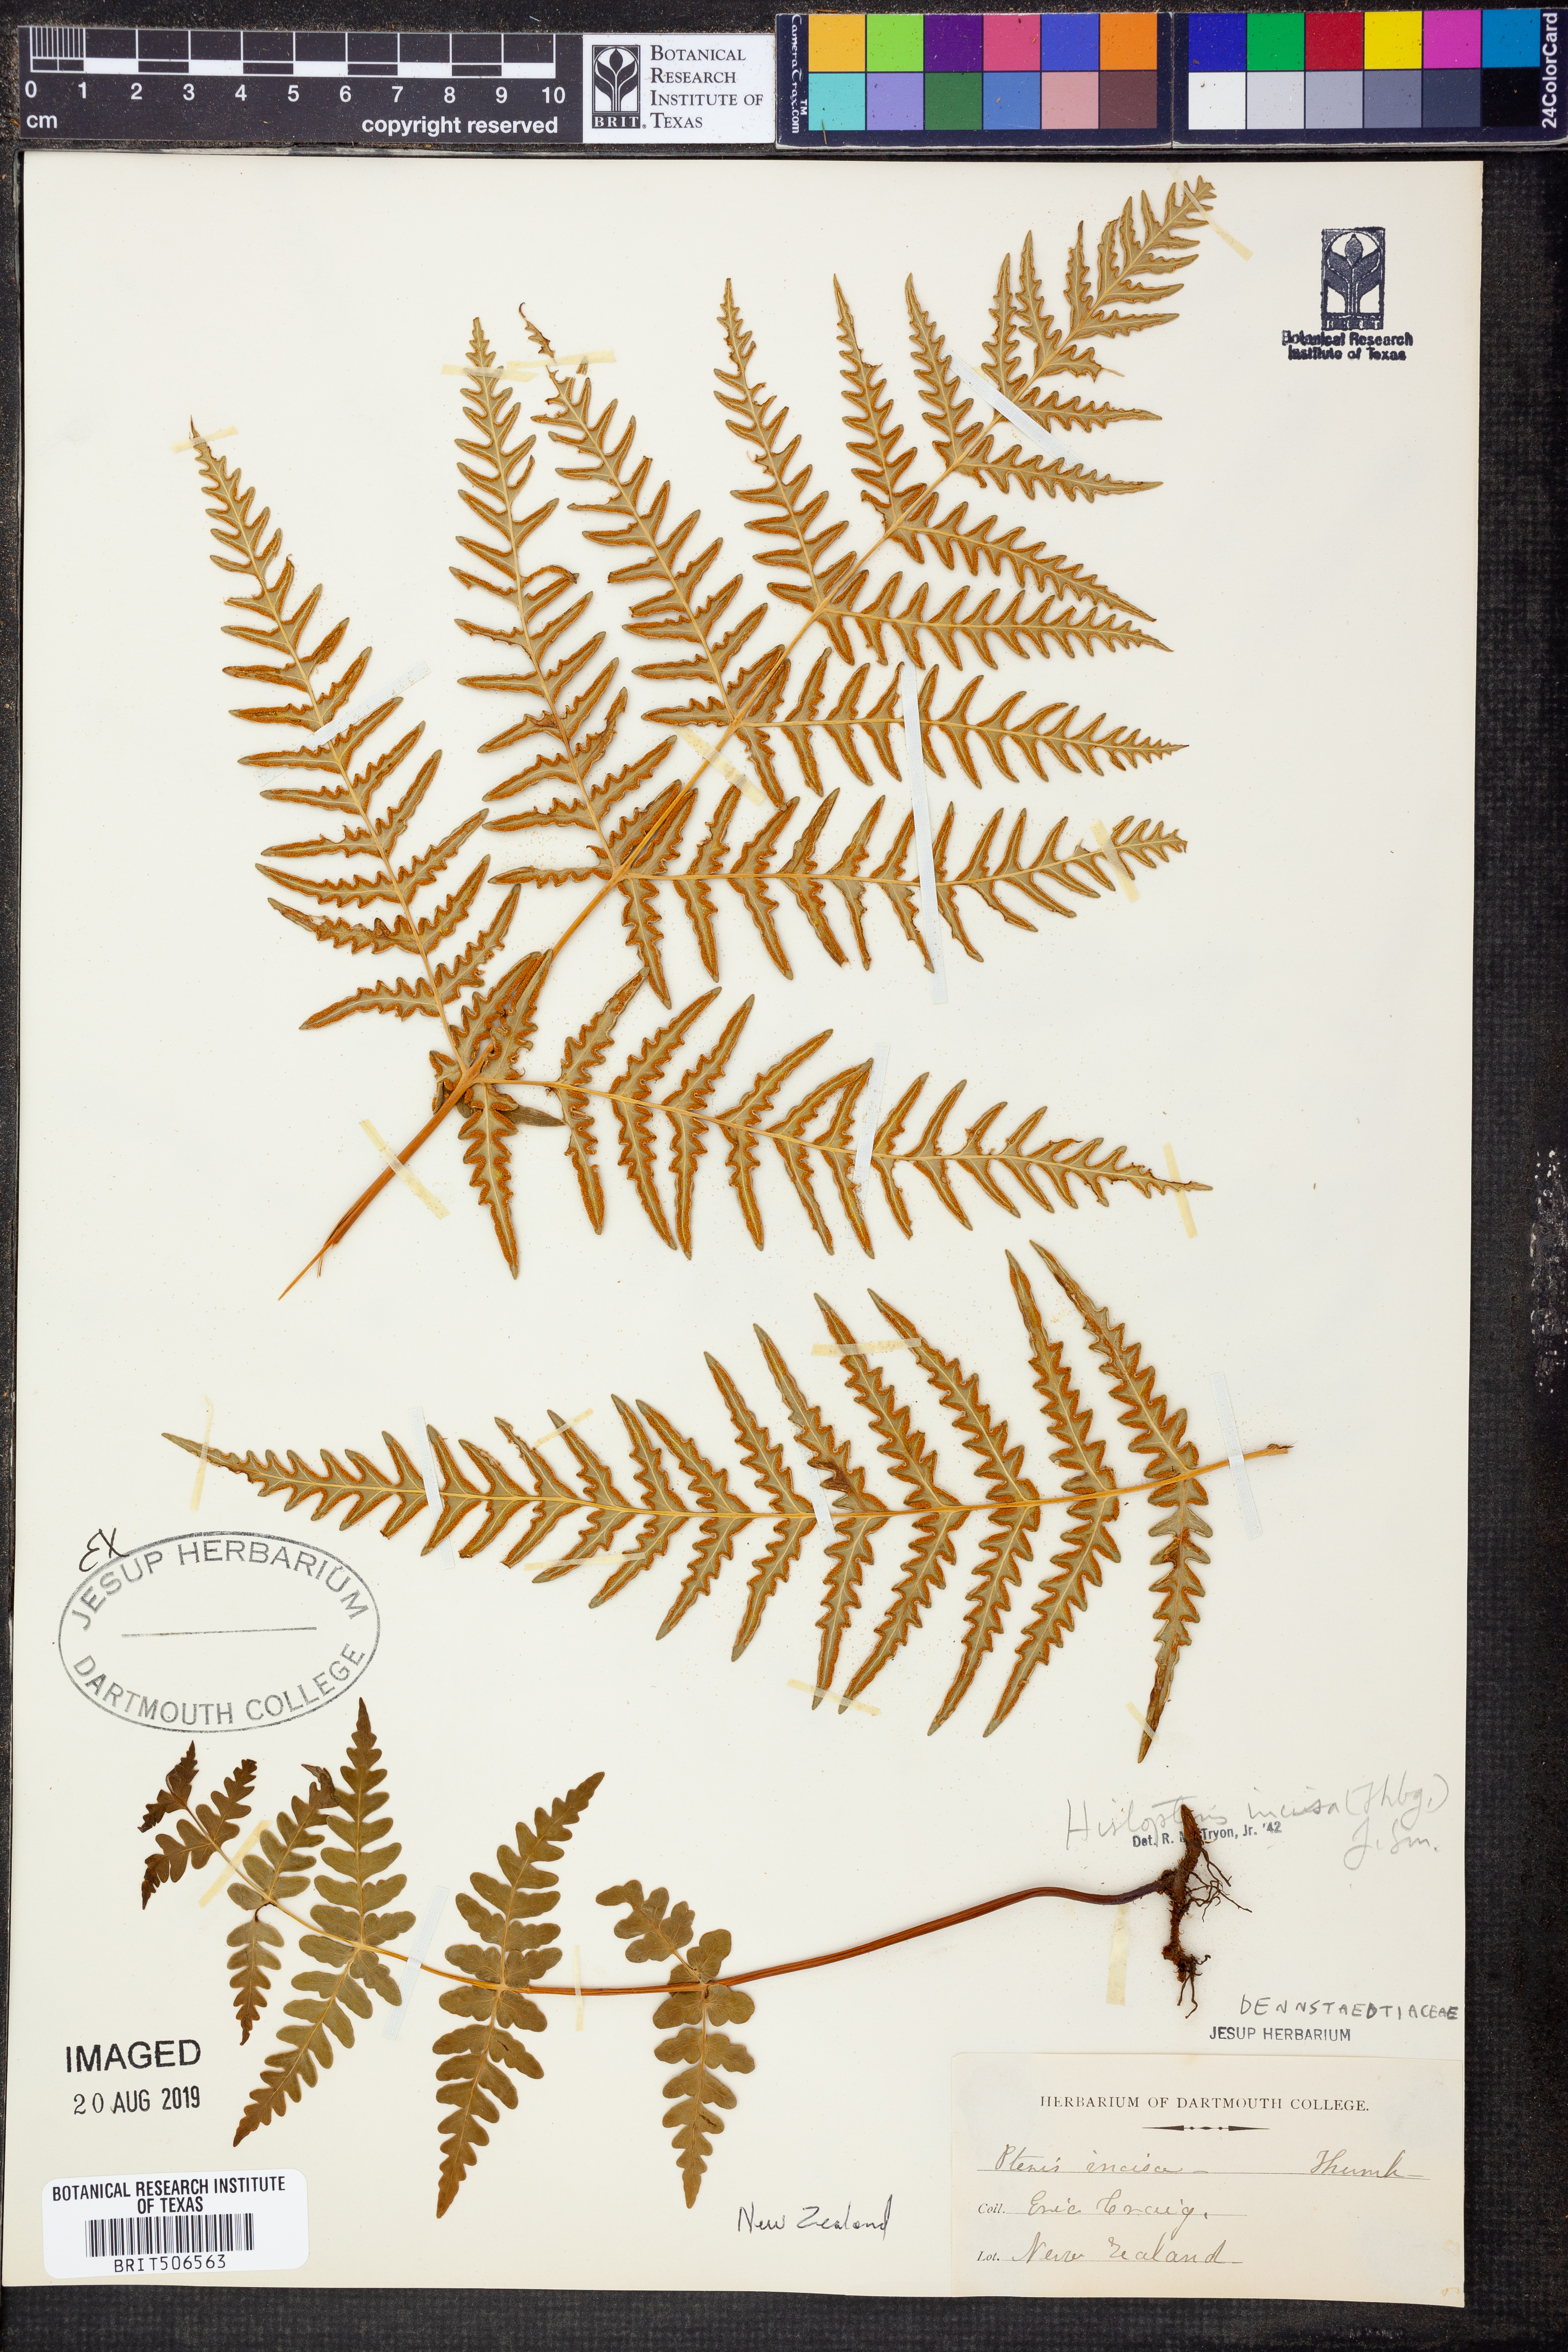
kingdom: Plantae
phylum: Tracheophyta
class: Polypodiopsida
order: Polypodiales
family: Dennstaedtiaceae
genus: Histiopteris
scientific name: Histiopteris incisa
